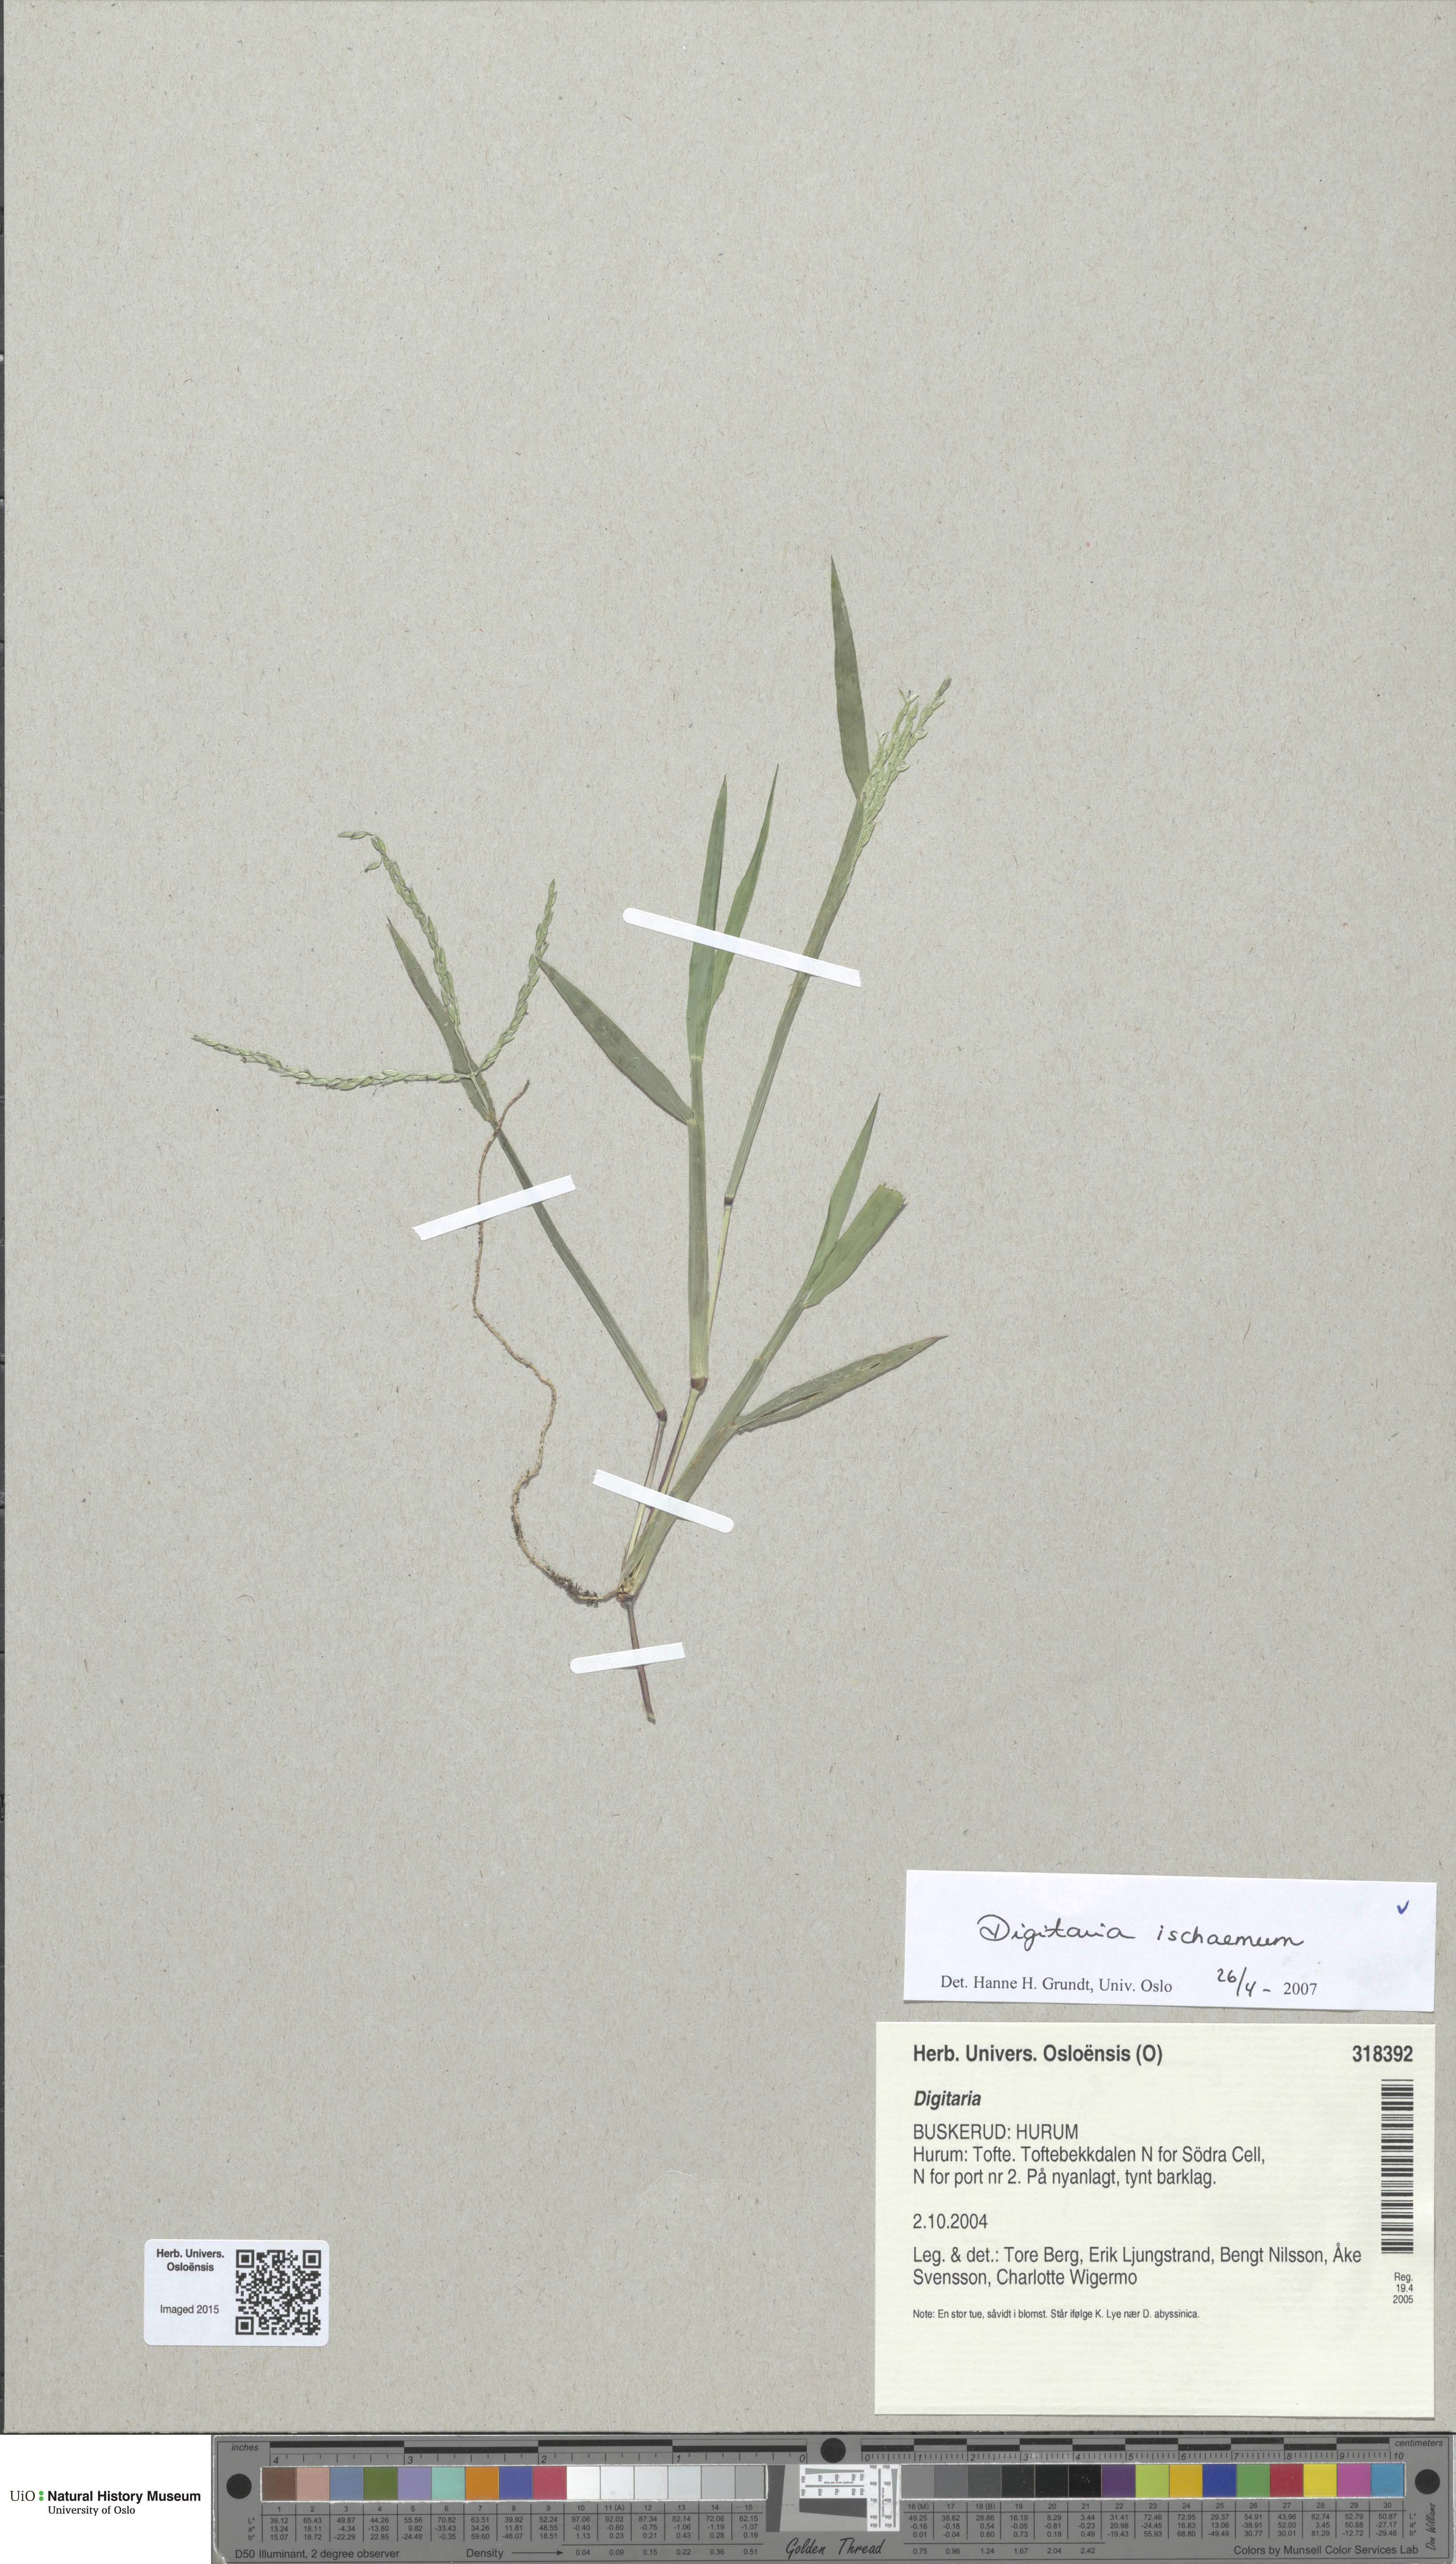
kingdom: Plantae
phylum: Tracheophyta
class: Liliopsida
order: Poales
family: Poaceae
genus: Digitaria
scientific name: Digitaria ischaemum
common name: Smooth crabgrass
